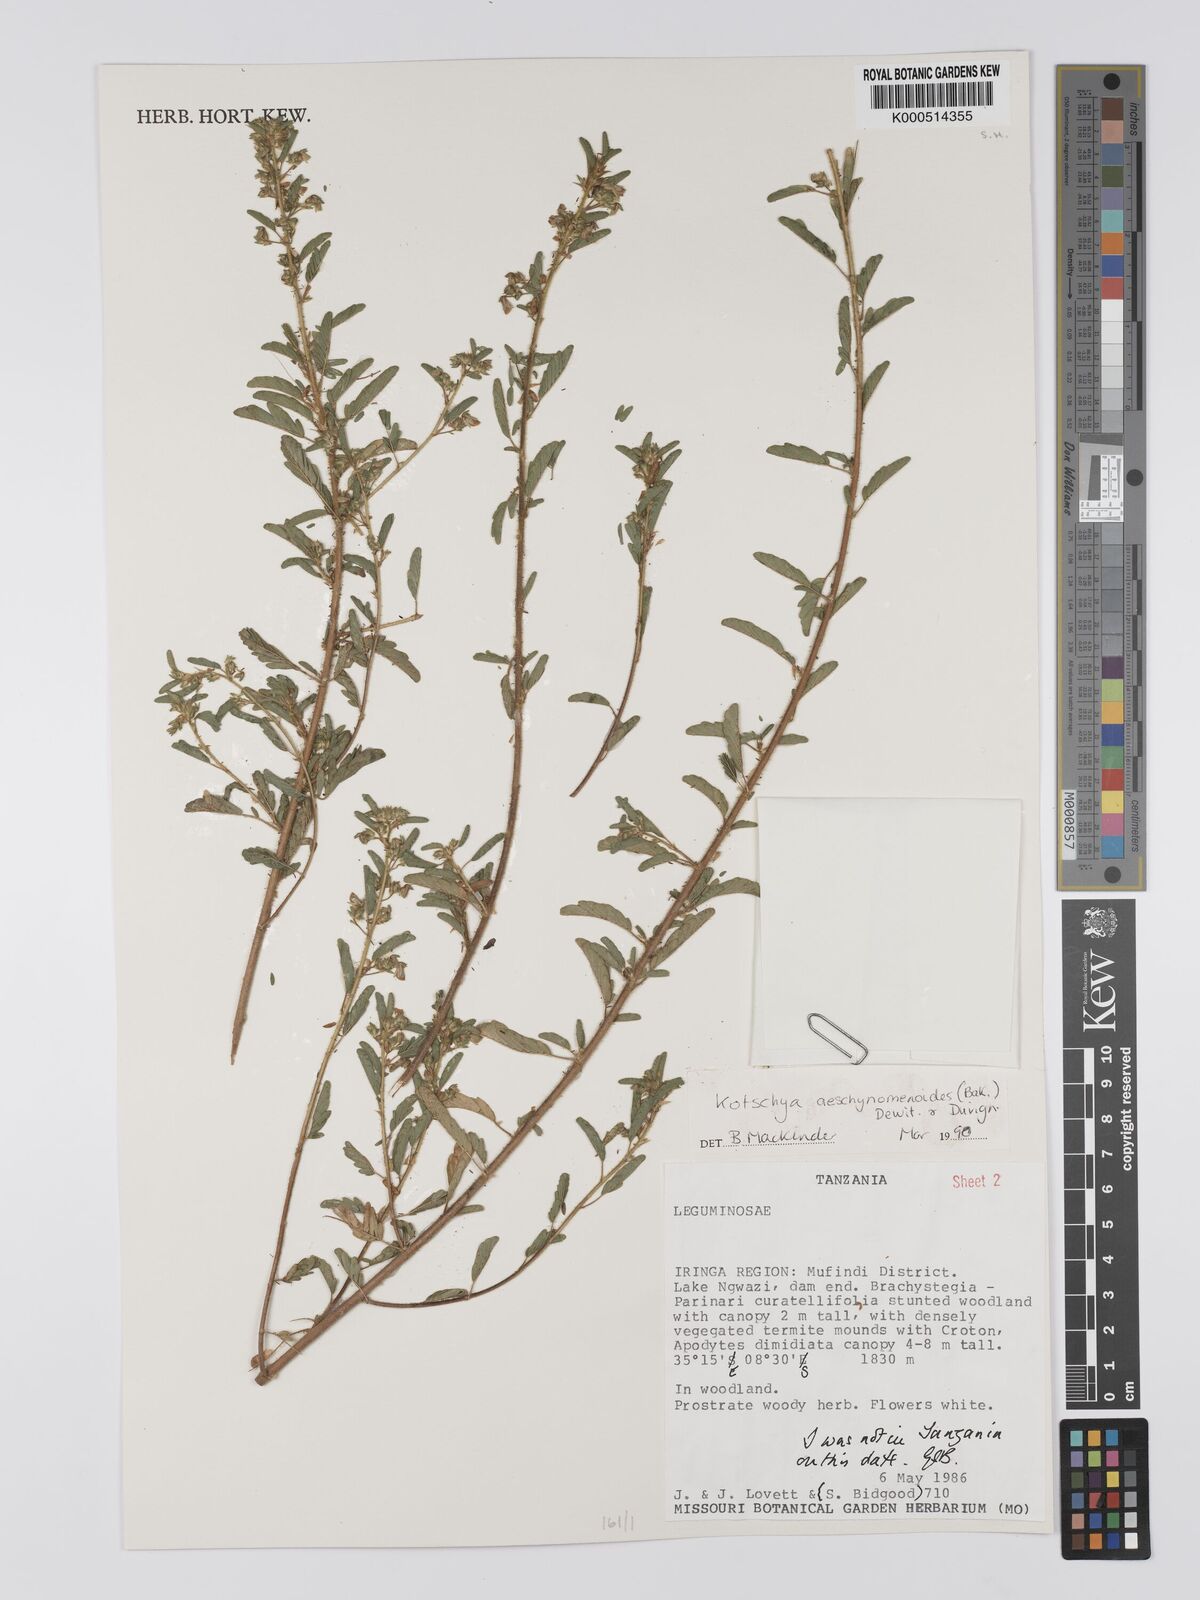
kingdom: Plantae
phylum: Tracheophyta
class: Magnoliopsida
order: Fabales
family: Fabaceae
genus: Kotschya
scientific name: Kotschya aeschynomenoides
